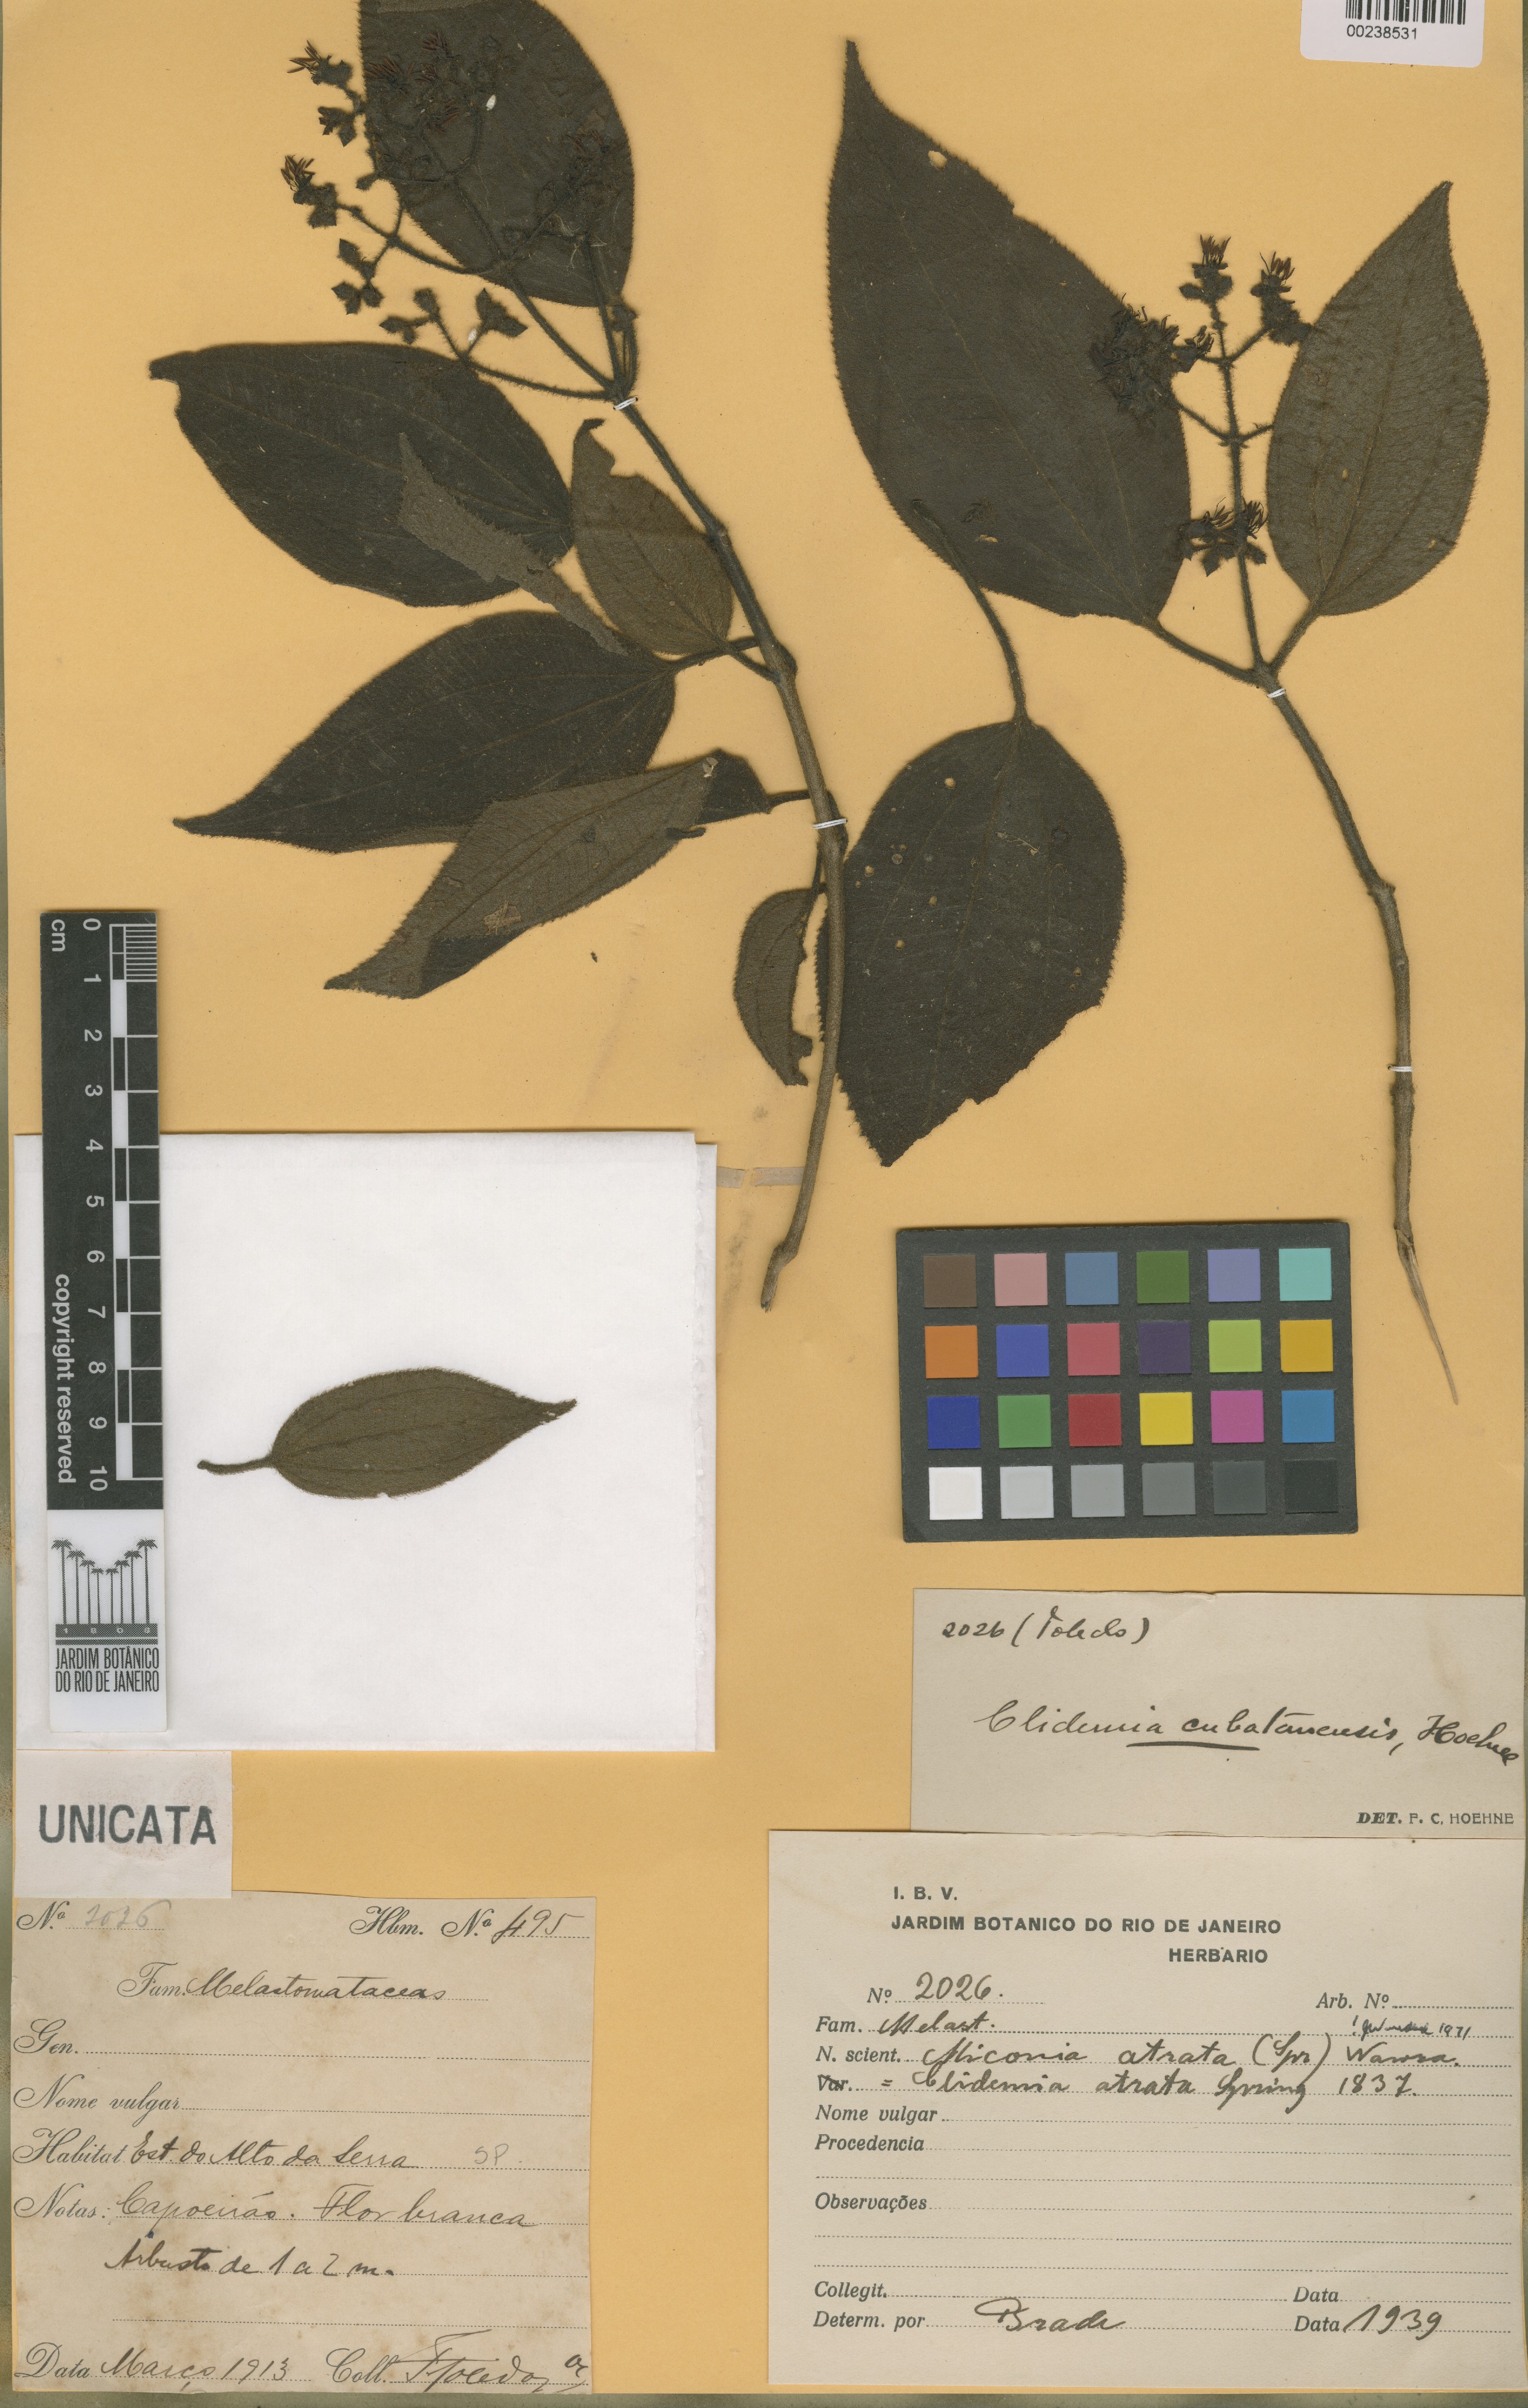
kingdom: Plantae
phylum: Tracheophyta
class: Magnoliopsida
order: Myrtales
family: Melastomataceae
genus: Miconia
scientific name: Miconia atrata
